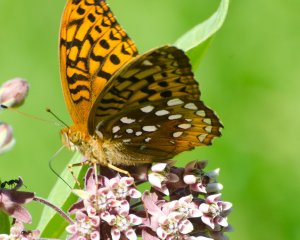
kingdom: Animalia
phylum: Arthropoda
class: Insecta
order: Lepidoptera
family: Nymphalidae
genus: Speyeria
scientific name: Speyeria cybele
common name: Great Spangled Fritillary
